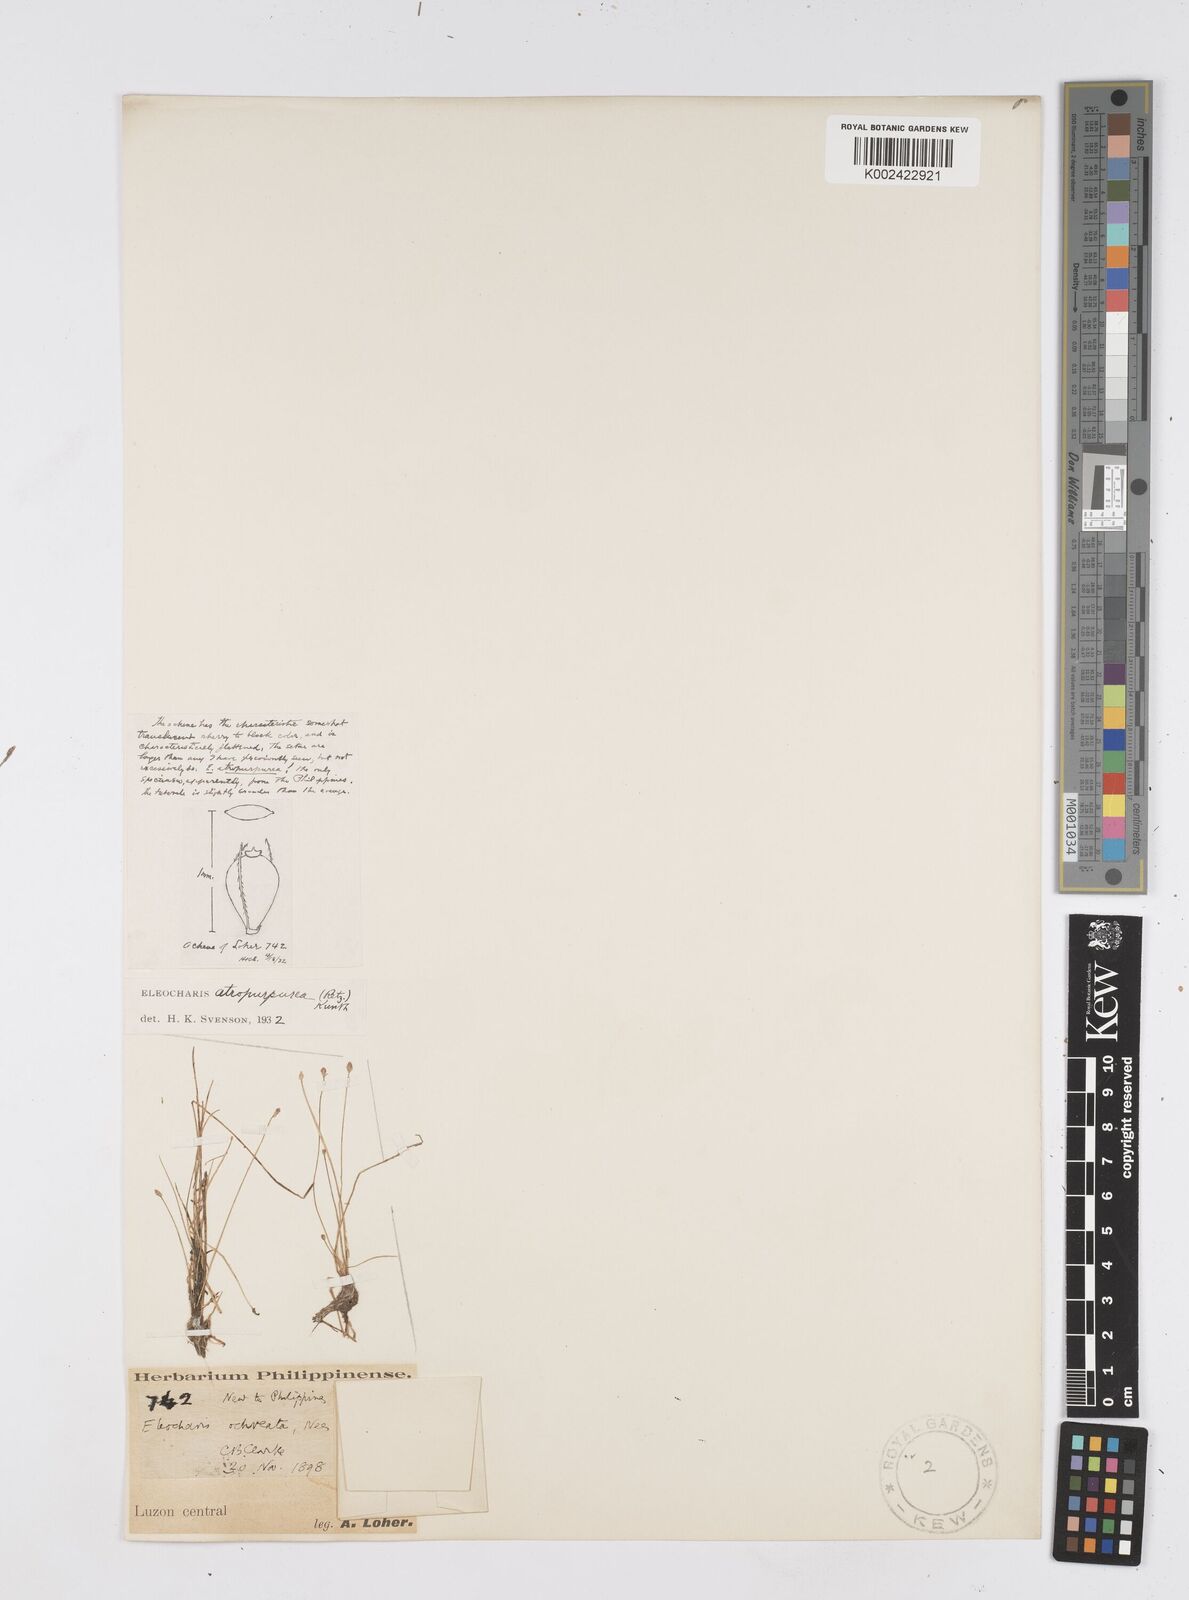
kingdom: Plantae
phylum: Tracheophyta
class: Liliopsida
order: Poales
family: Cyperaceae
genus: Eleocharis
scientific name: Eleocharis atropurpurea
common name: Purple spikerush
